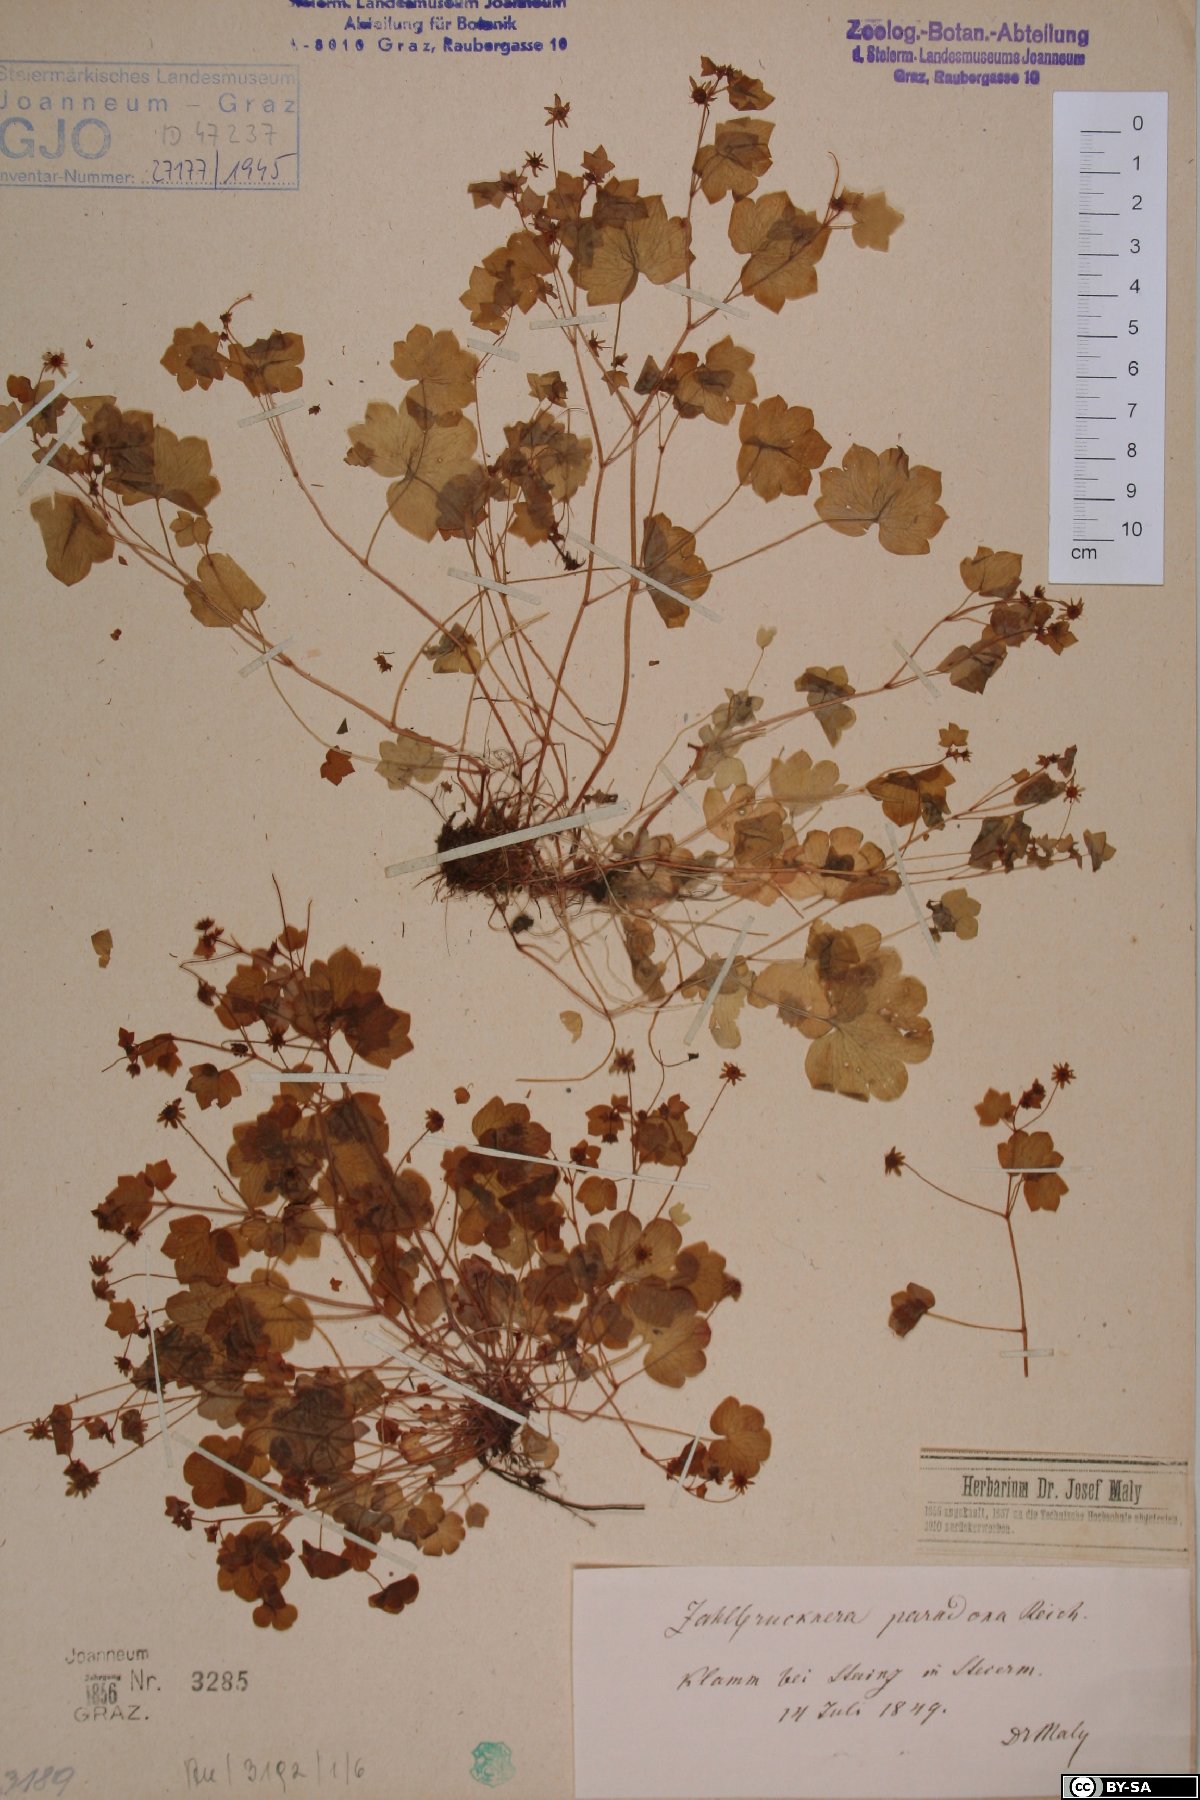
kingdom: Plantae
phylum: Tracheophyta
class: Magnoliopsida
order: Saxifragales
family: Saxifragaceae
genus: Saxifraga
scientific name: Saxifraga paradoxa
